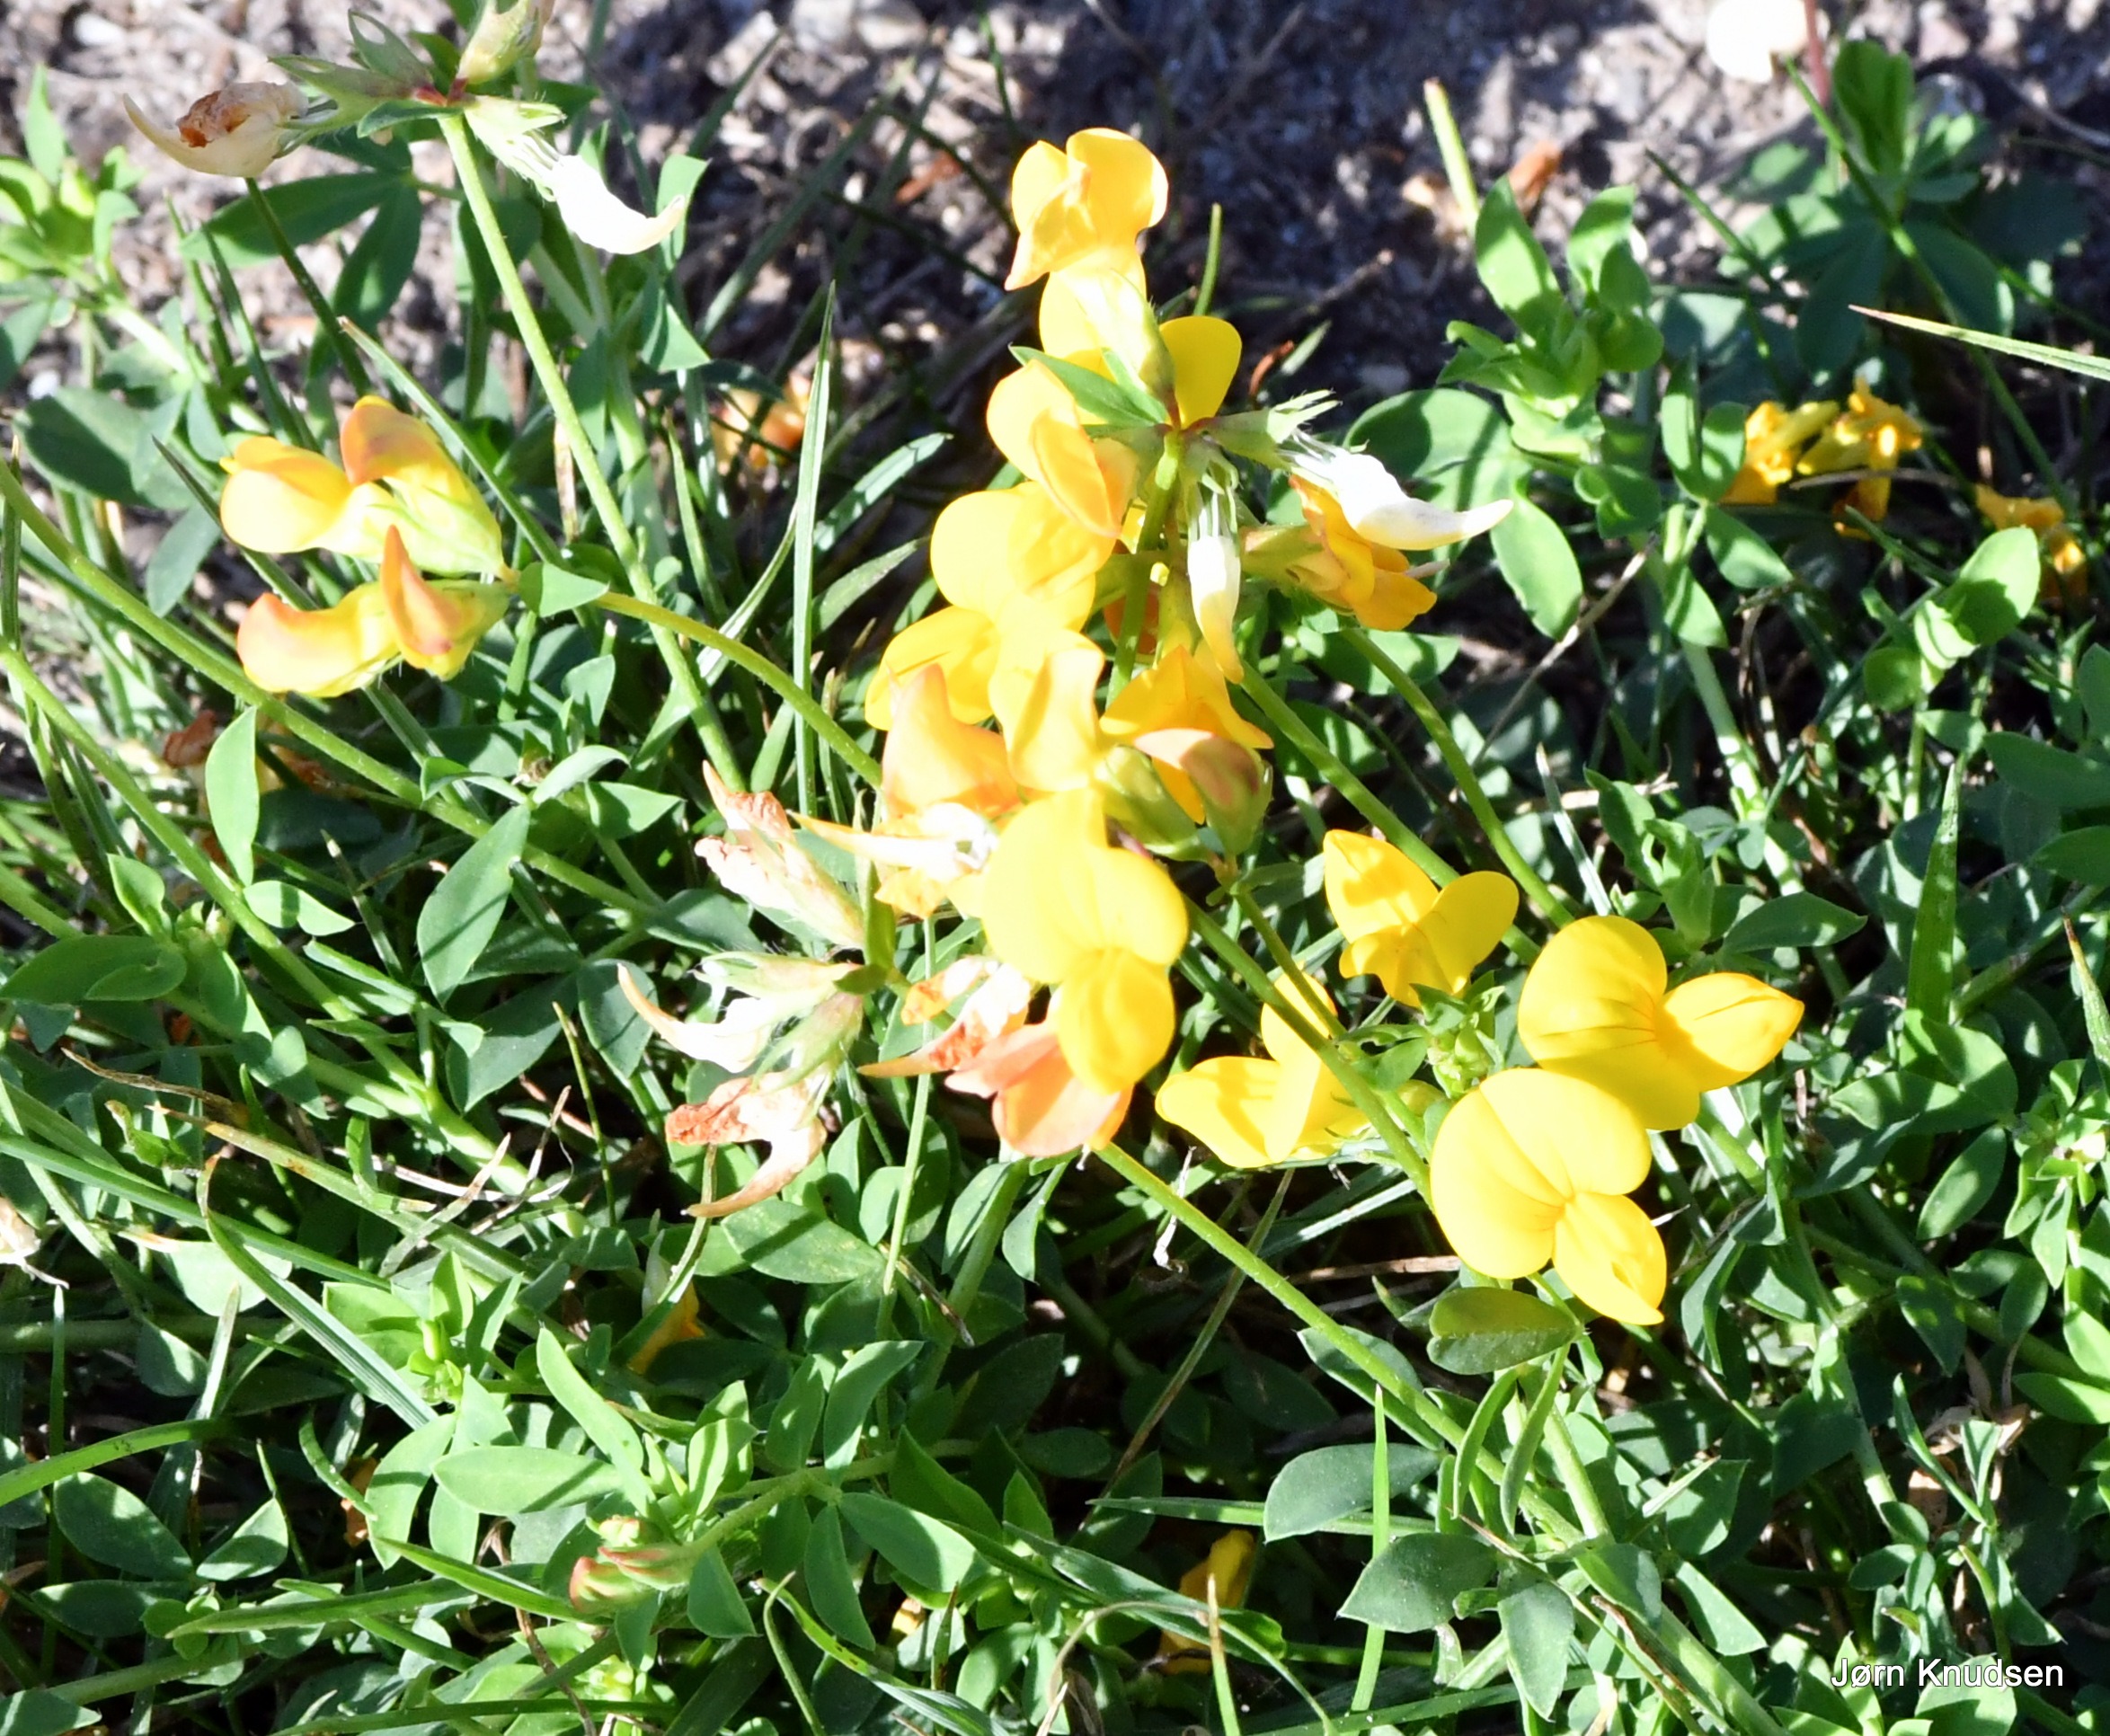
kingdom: Plantae
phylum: Tracheophyta
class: Magnoliopsida
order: Fabales
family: Fabaceae
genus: Lotus
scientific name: Lotus corniculatus
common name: Almindelig kællingetand
